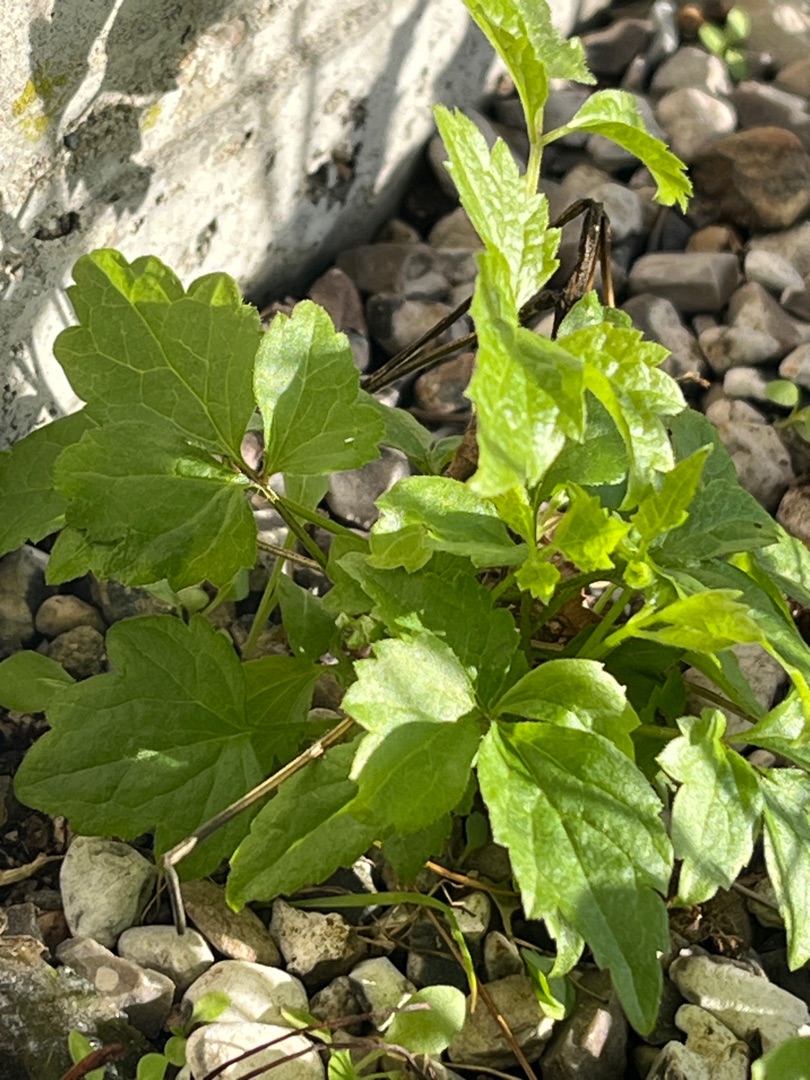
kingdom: Plantae
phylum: Tracheophyta
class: Magnoliopsida
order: Ranunculales
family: Ranunculaceae
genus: Clematis
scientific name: Clematis vitalba
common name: Skovranke
